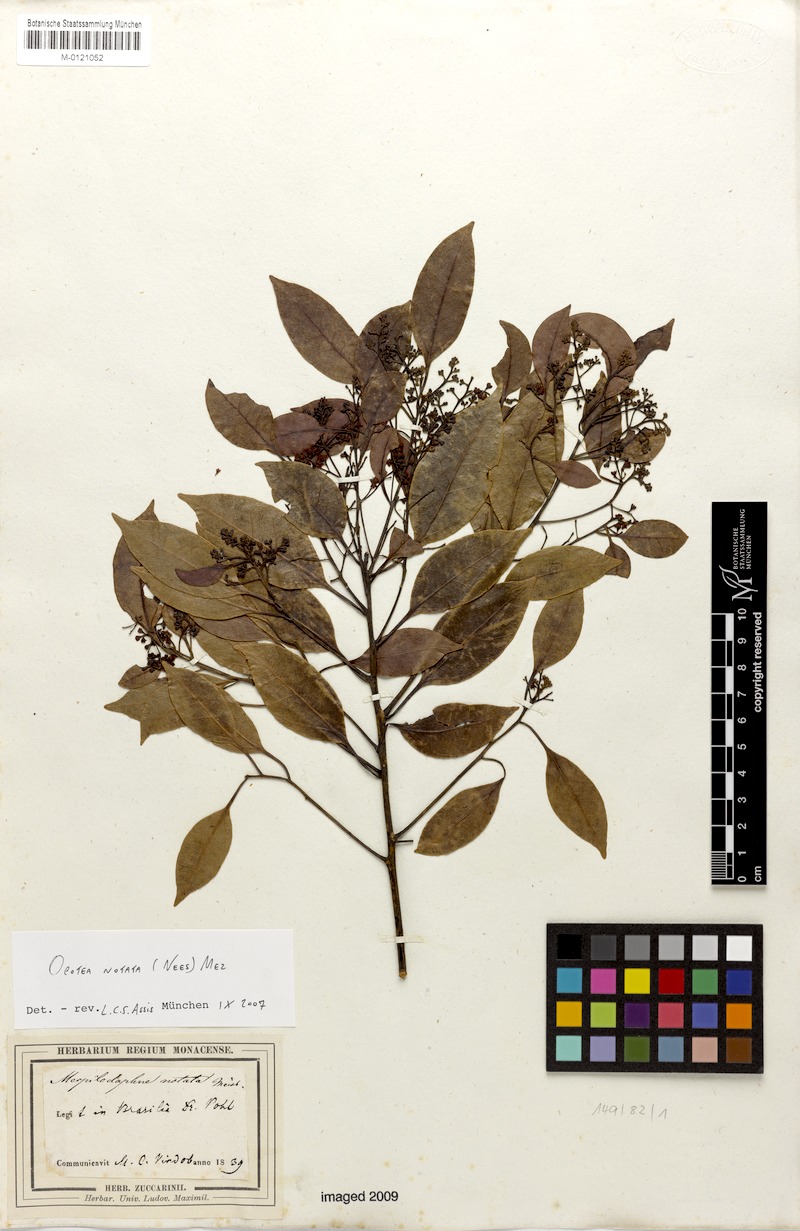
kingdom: Plantae
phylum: Tracheophyta
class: Magnoliopsida
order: Laurales
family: Lauraceae
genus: Mespilodaphne
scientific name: Mespilodaphne notata
